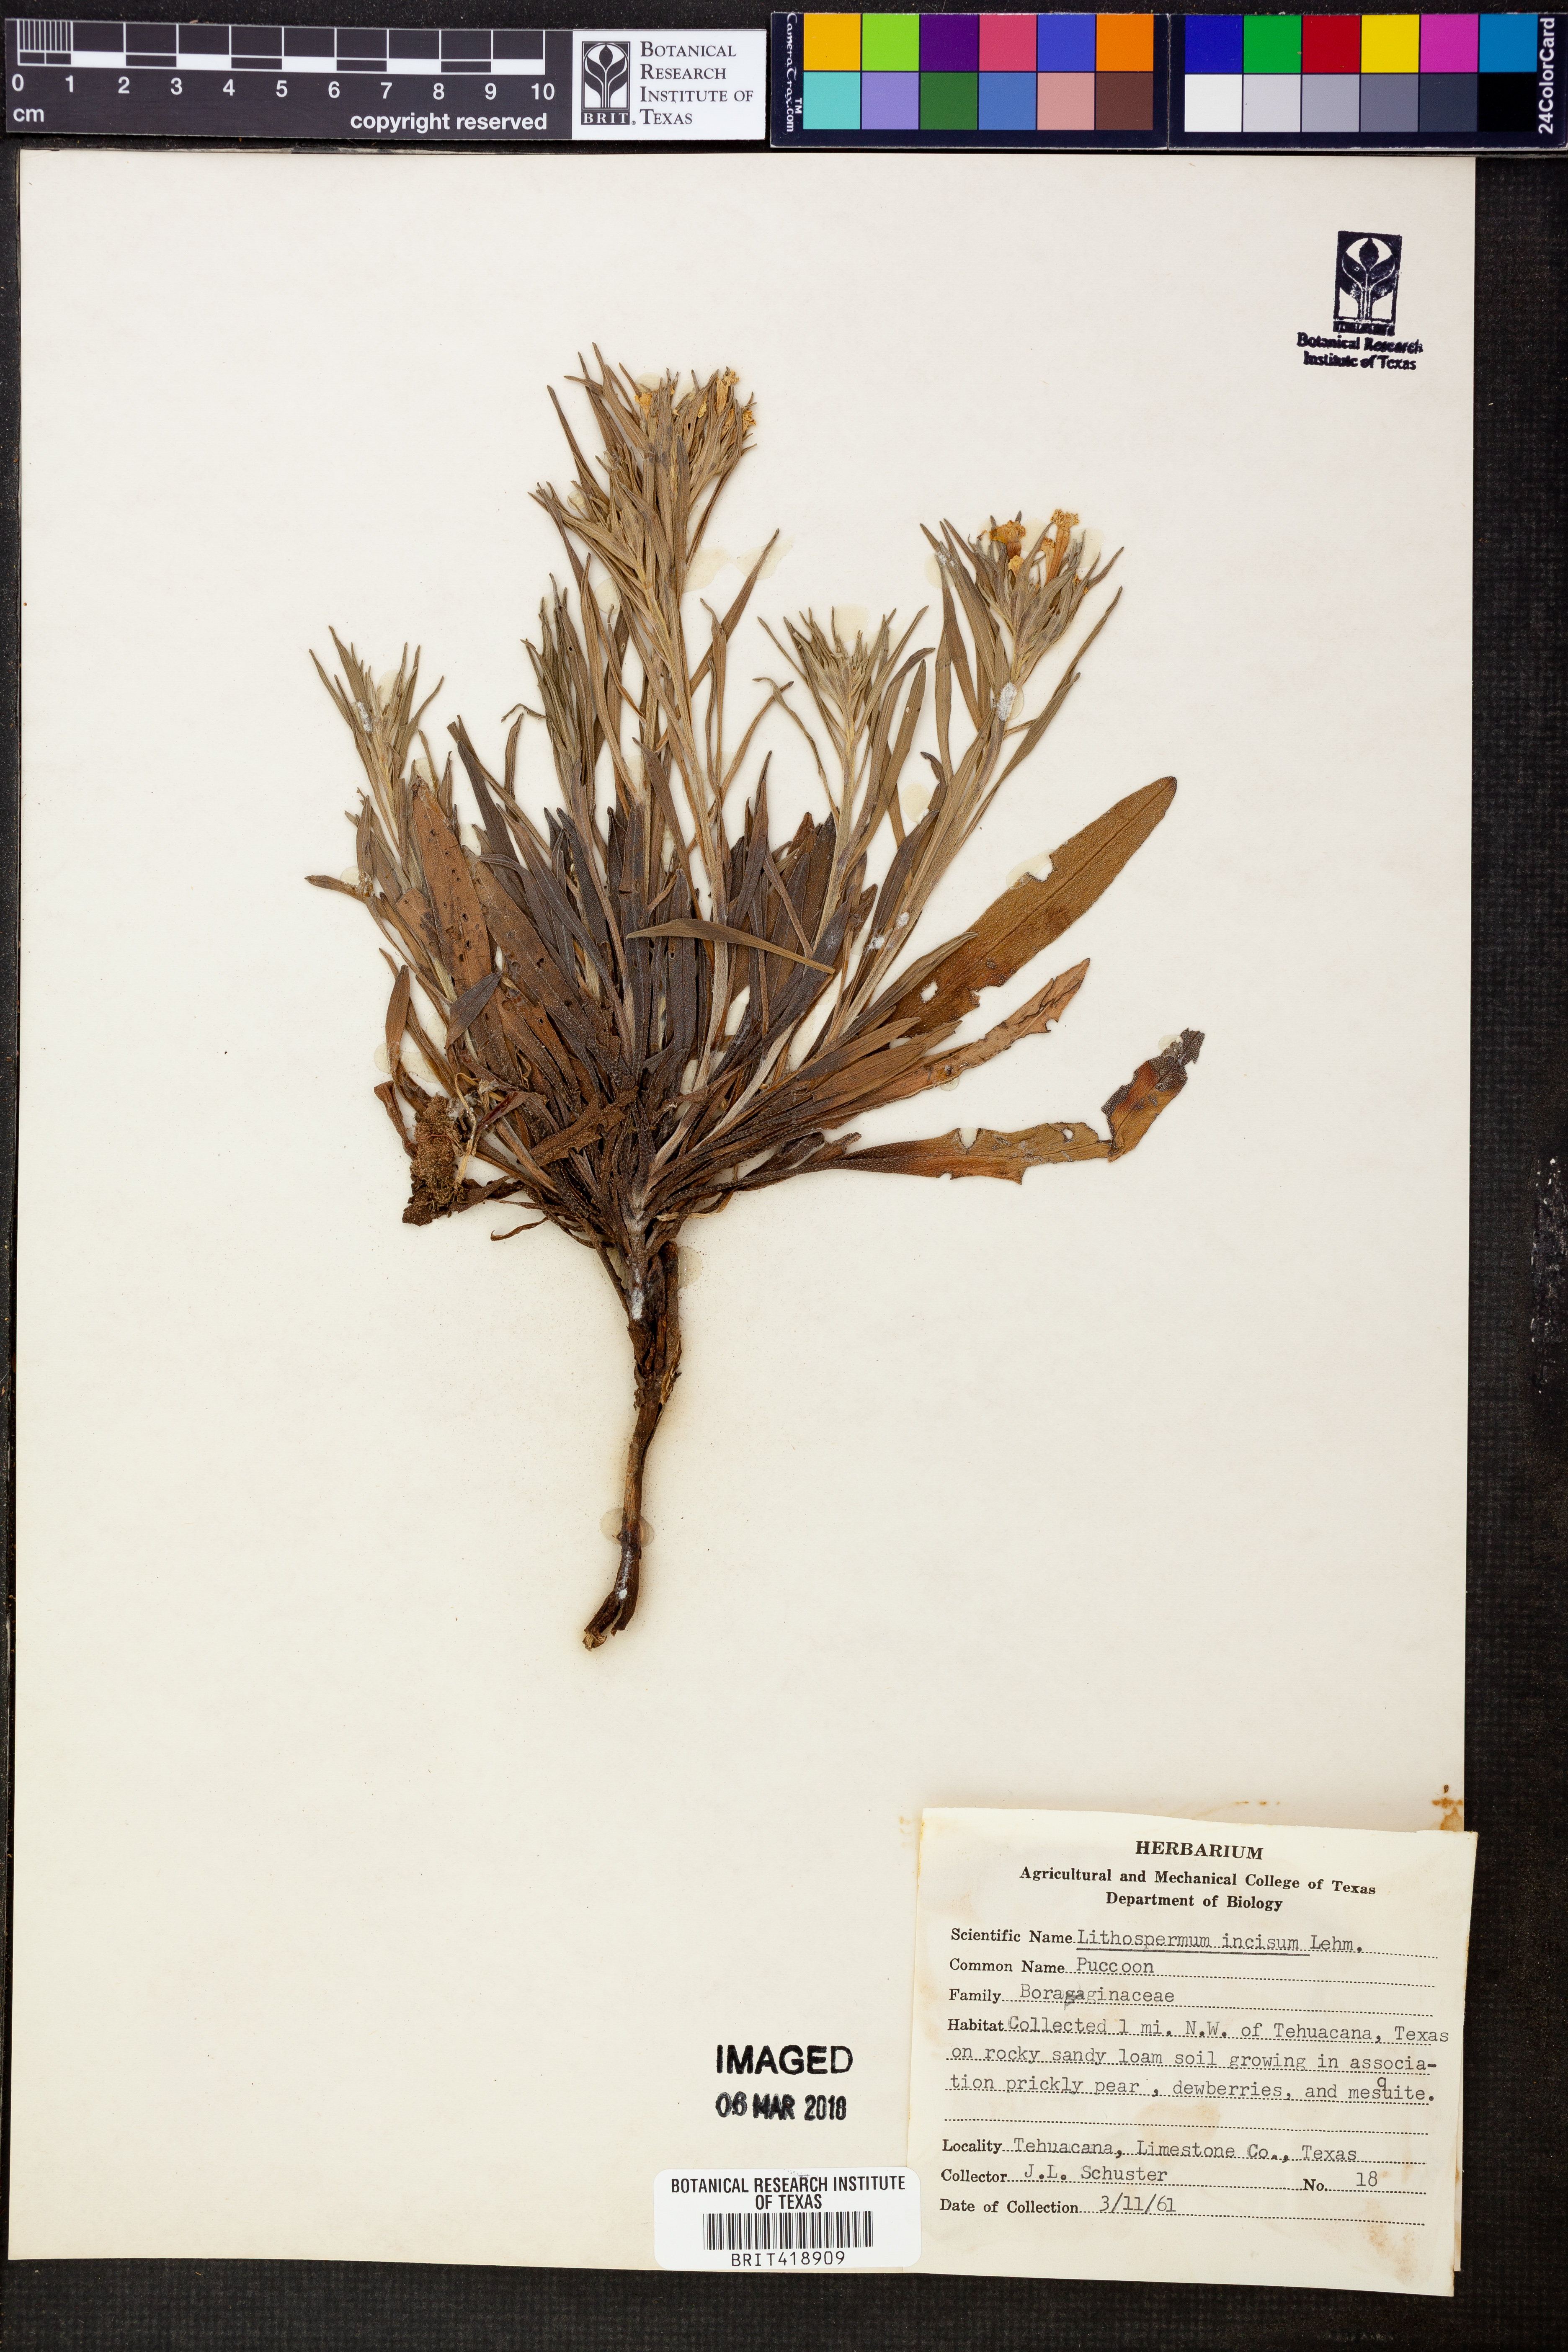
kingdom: Plantae
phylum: Tracheophyta
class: Magnoliopsida
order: Boraginales
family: Boraginaceae
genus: Lithospermum
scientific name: Lithospermum incisum
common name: Fringed gromwell
